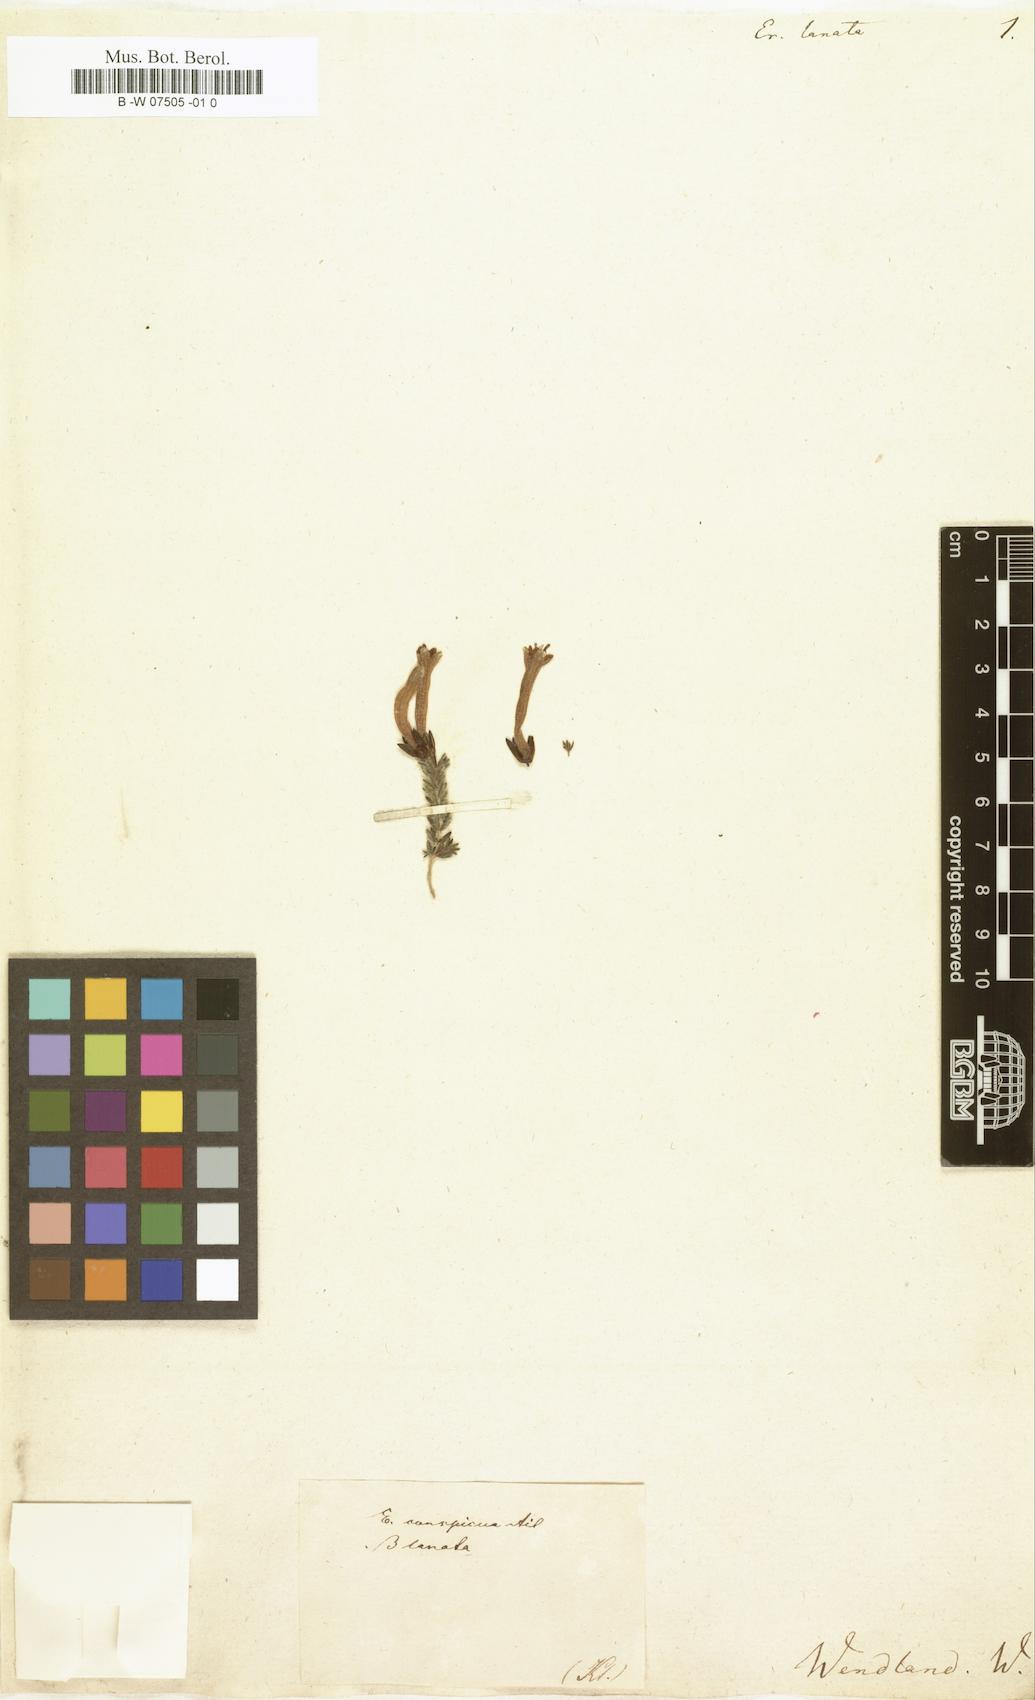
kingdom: Plantae
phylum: Tracheophyta
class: Magnoliopsida
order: Ericales
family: Ericaceae
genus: Erica
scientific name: Erica
